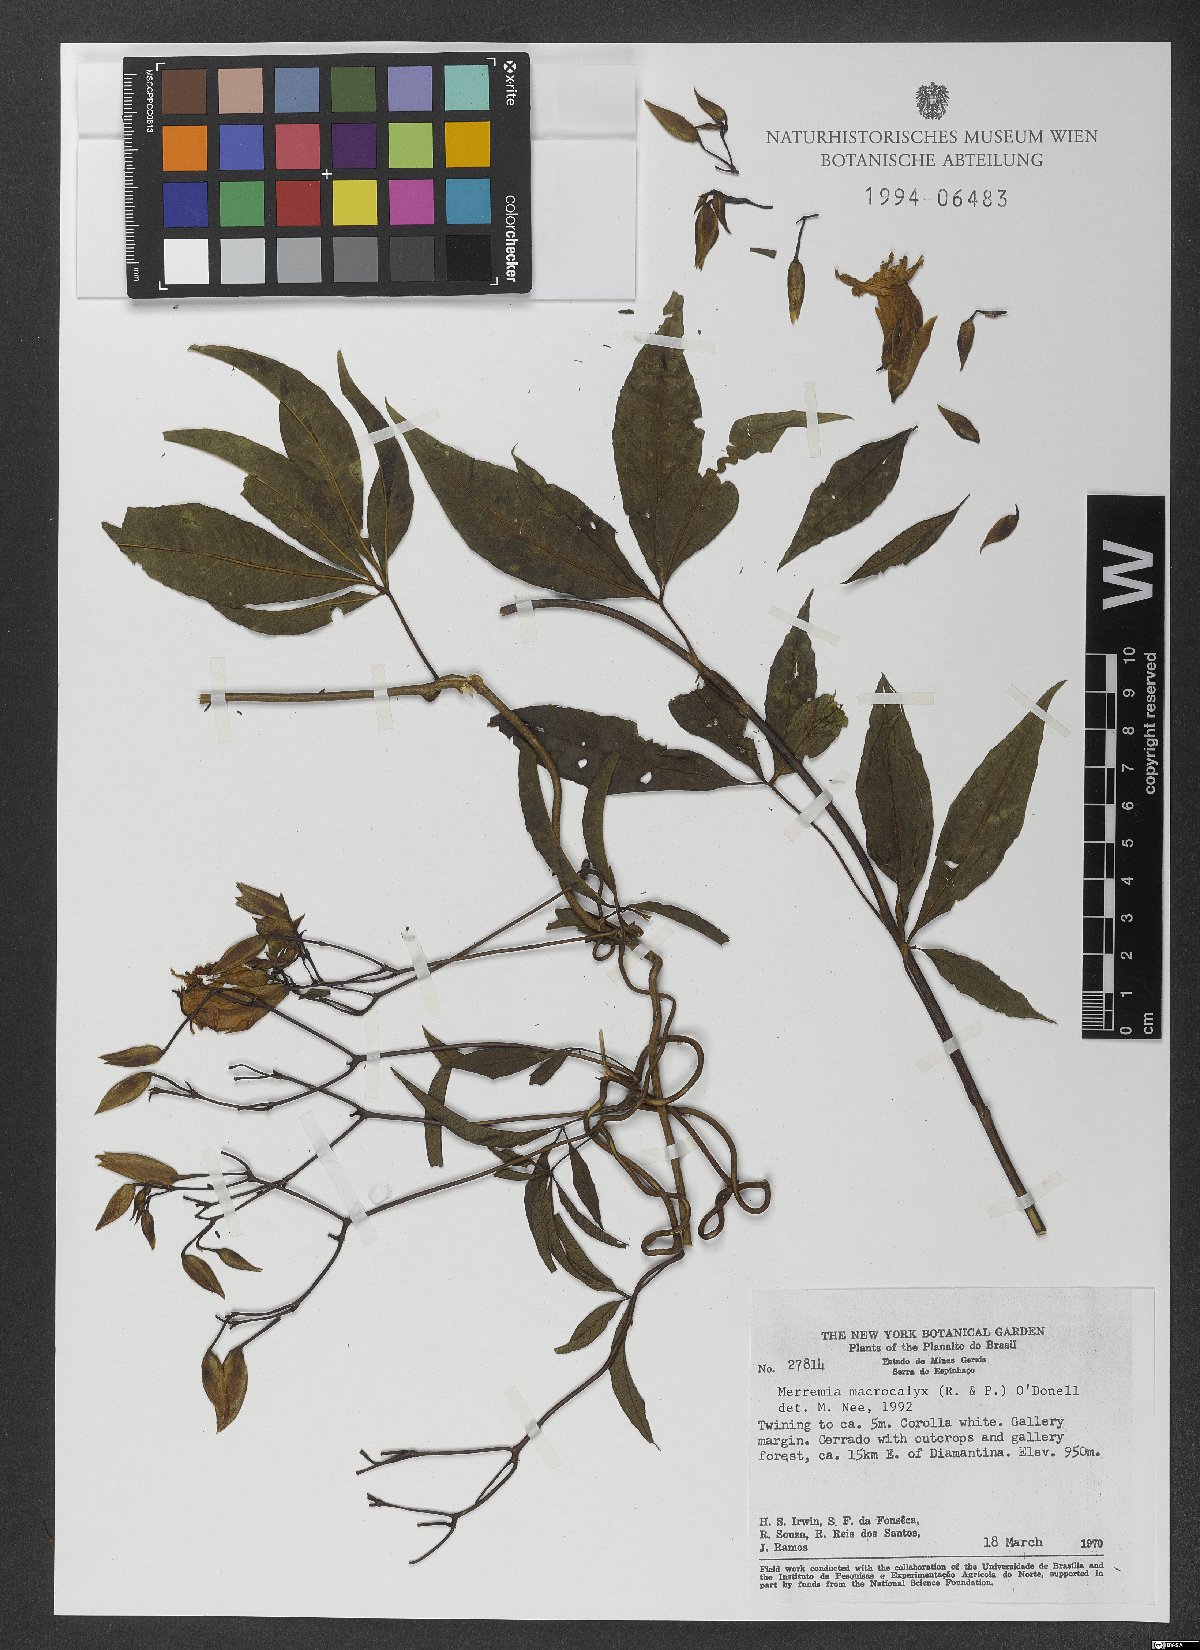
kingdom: Plantae
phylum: Tracheophyta
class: Magnoliopsida
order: Solanales
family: Convolvulaceae
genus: Distimake
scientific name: Distimake macrocalyx
